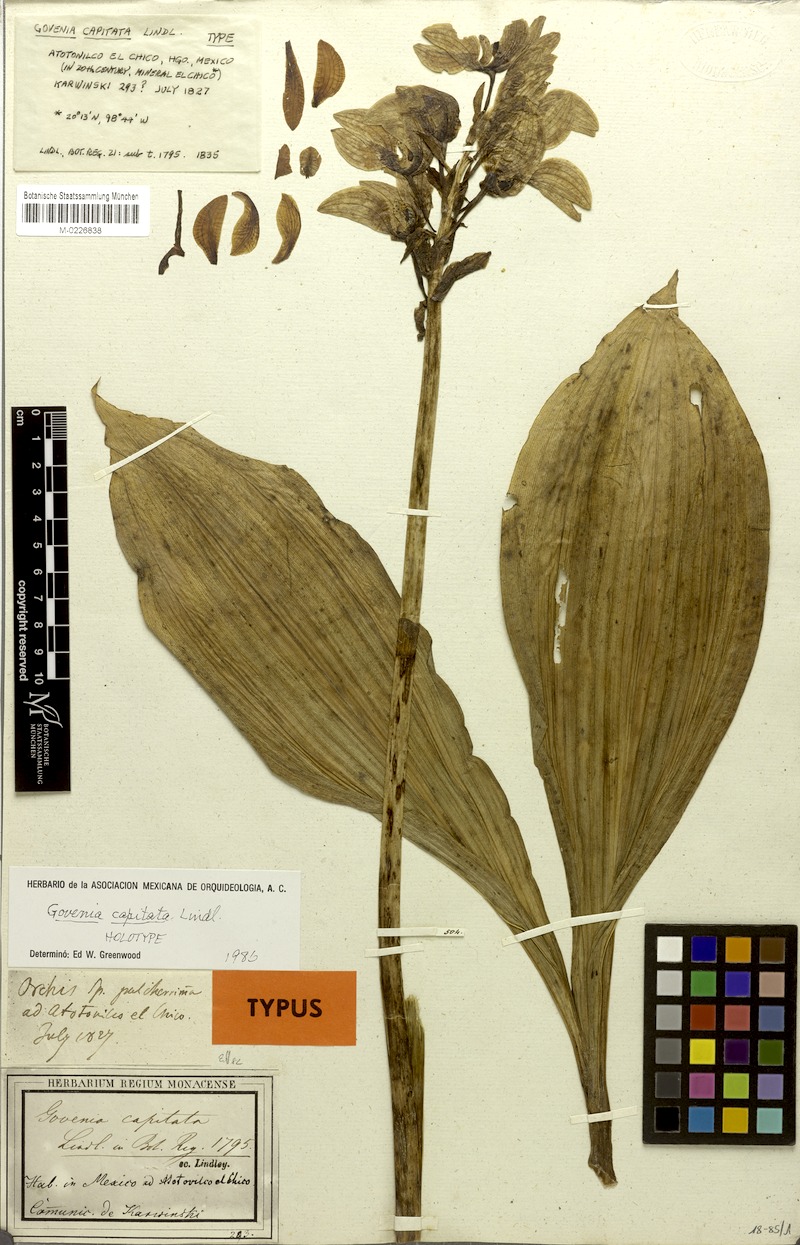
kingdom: Plantae
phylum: Tracheophyta
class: Liliopsida
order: Asparagales
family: Orchidaceae
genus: Govenia
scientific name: Govenia utriculata
